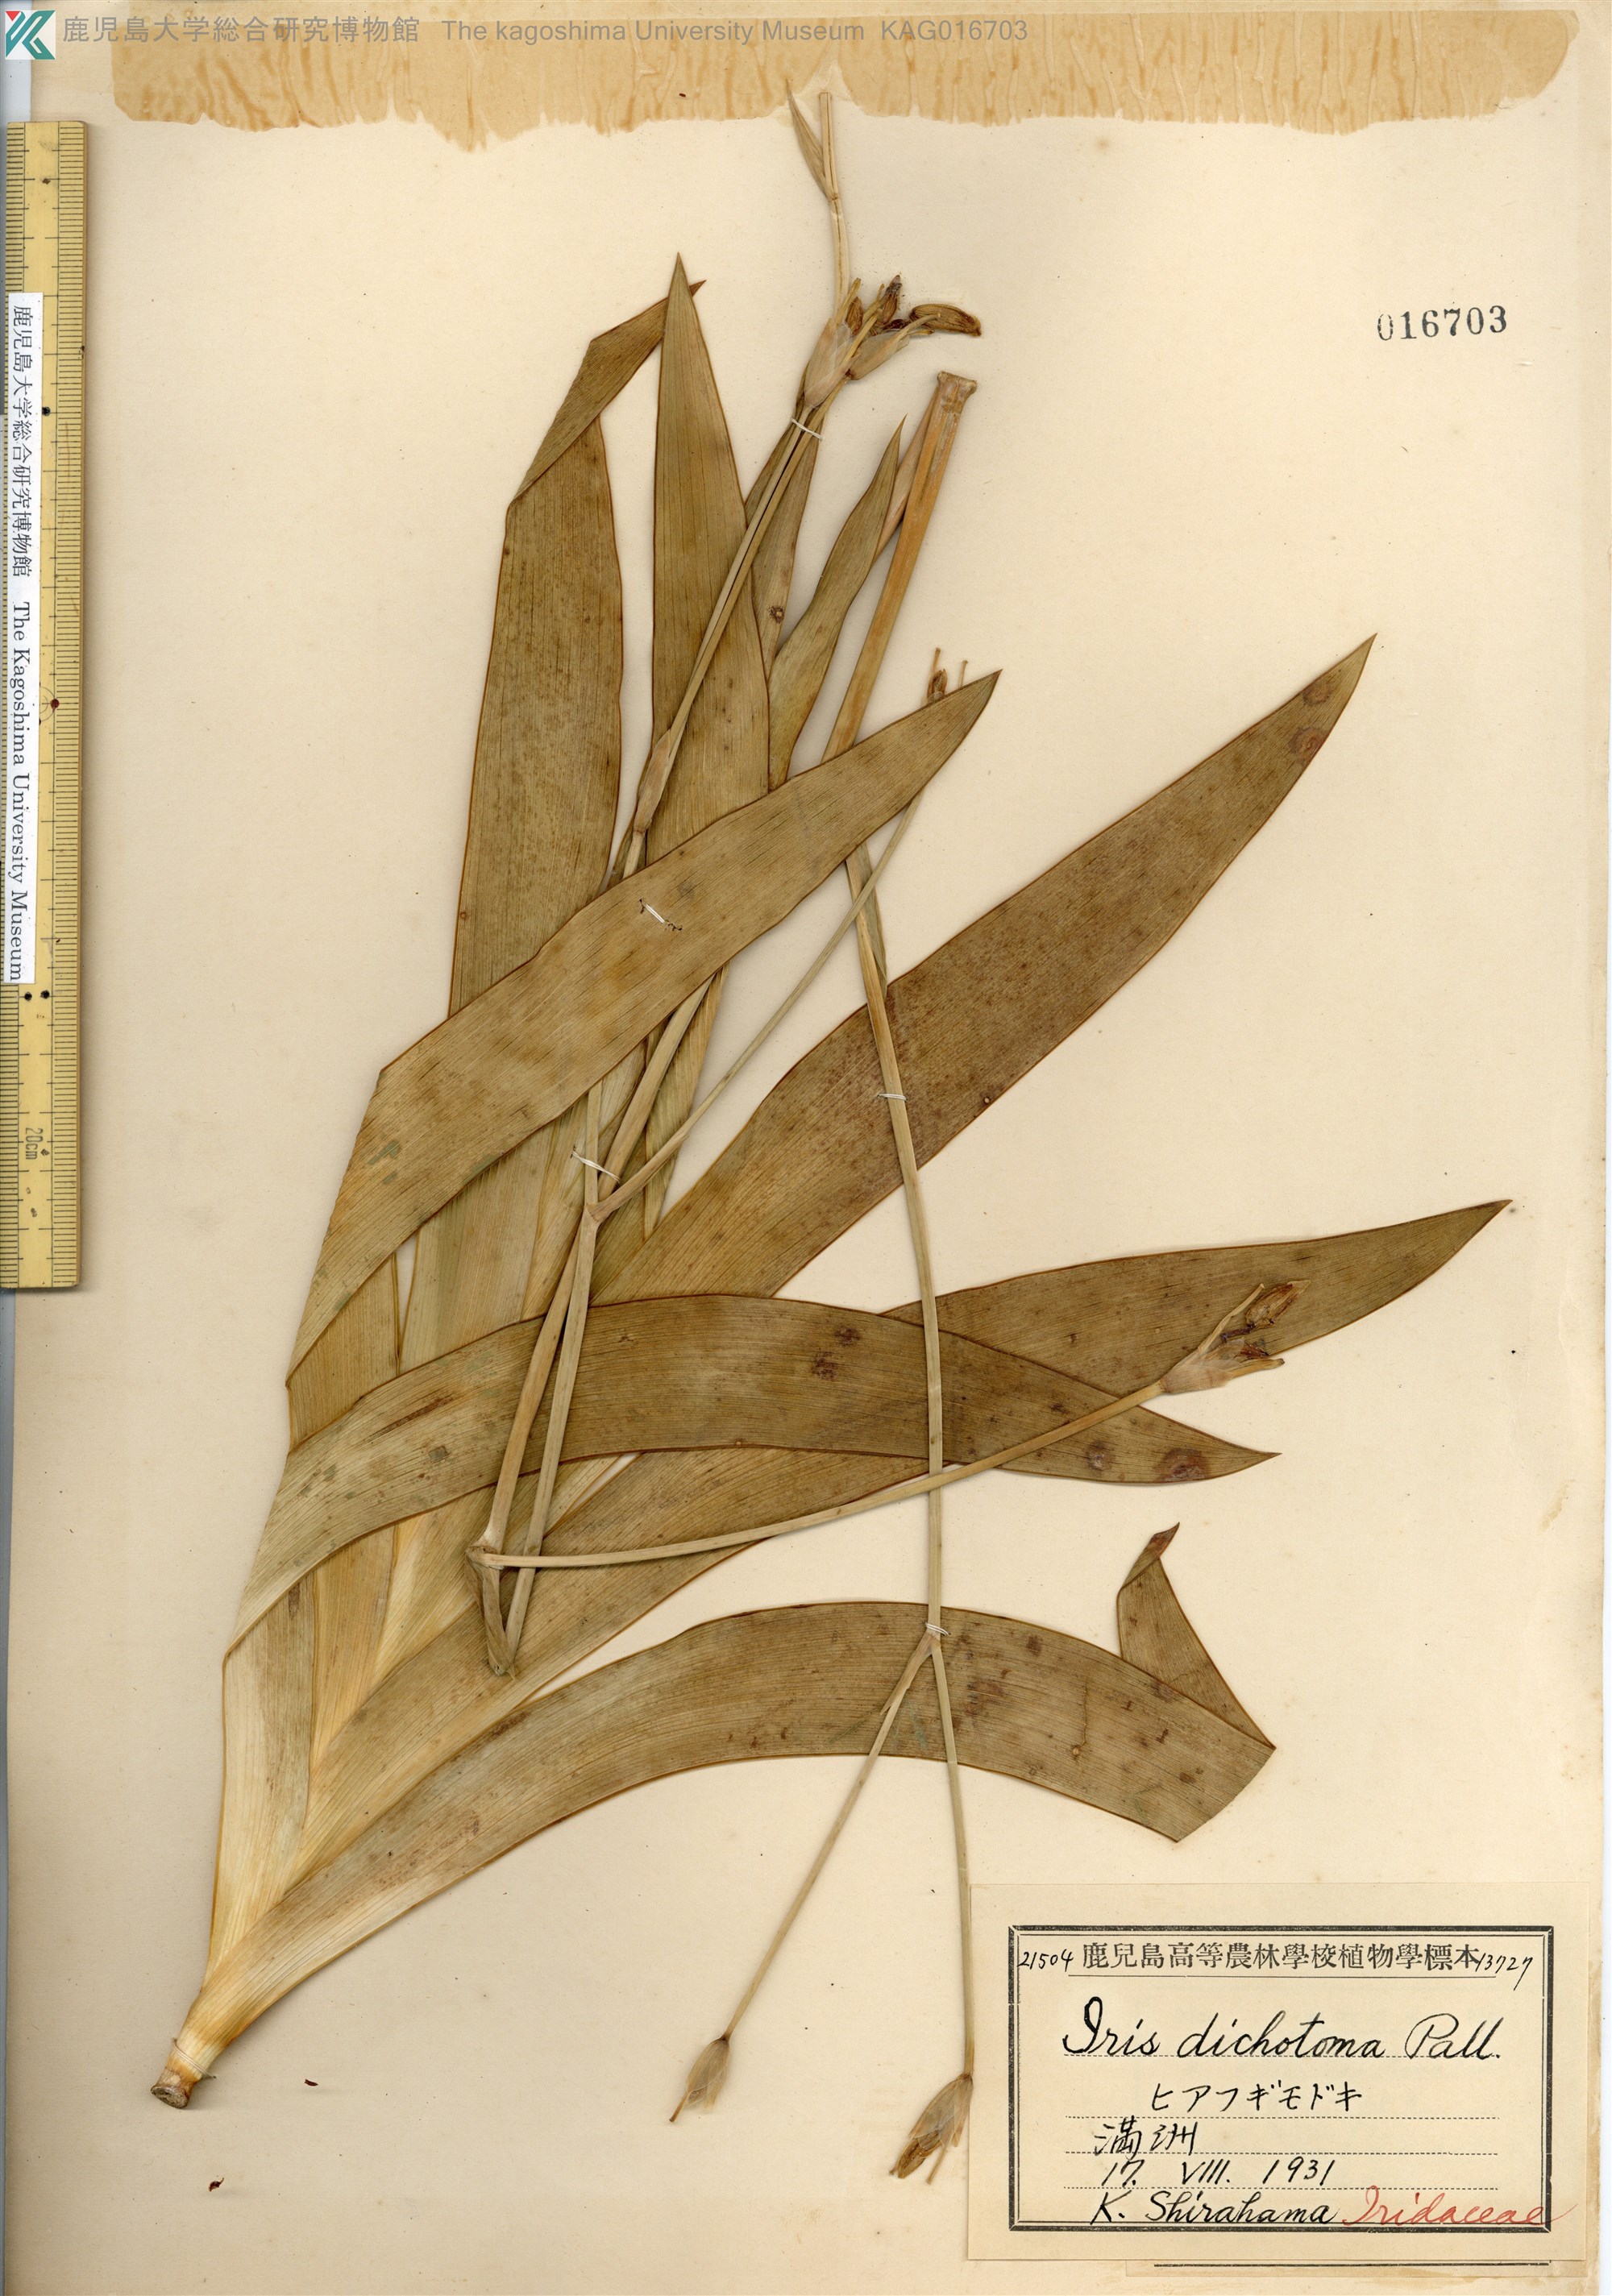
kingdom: Plantae
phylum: Tracheophyta
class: Liliopsida
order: Asparagales
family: Iridaceae
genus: Iris
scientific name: Iris dichotoma
